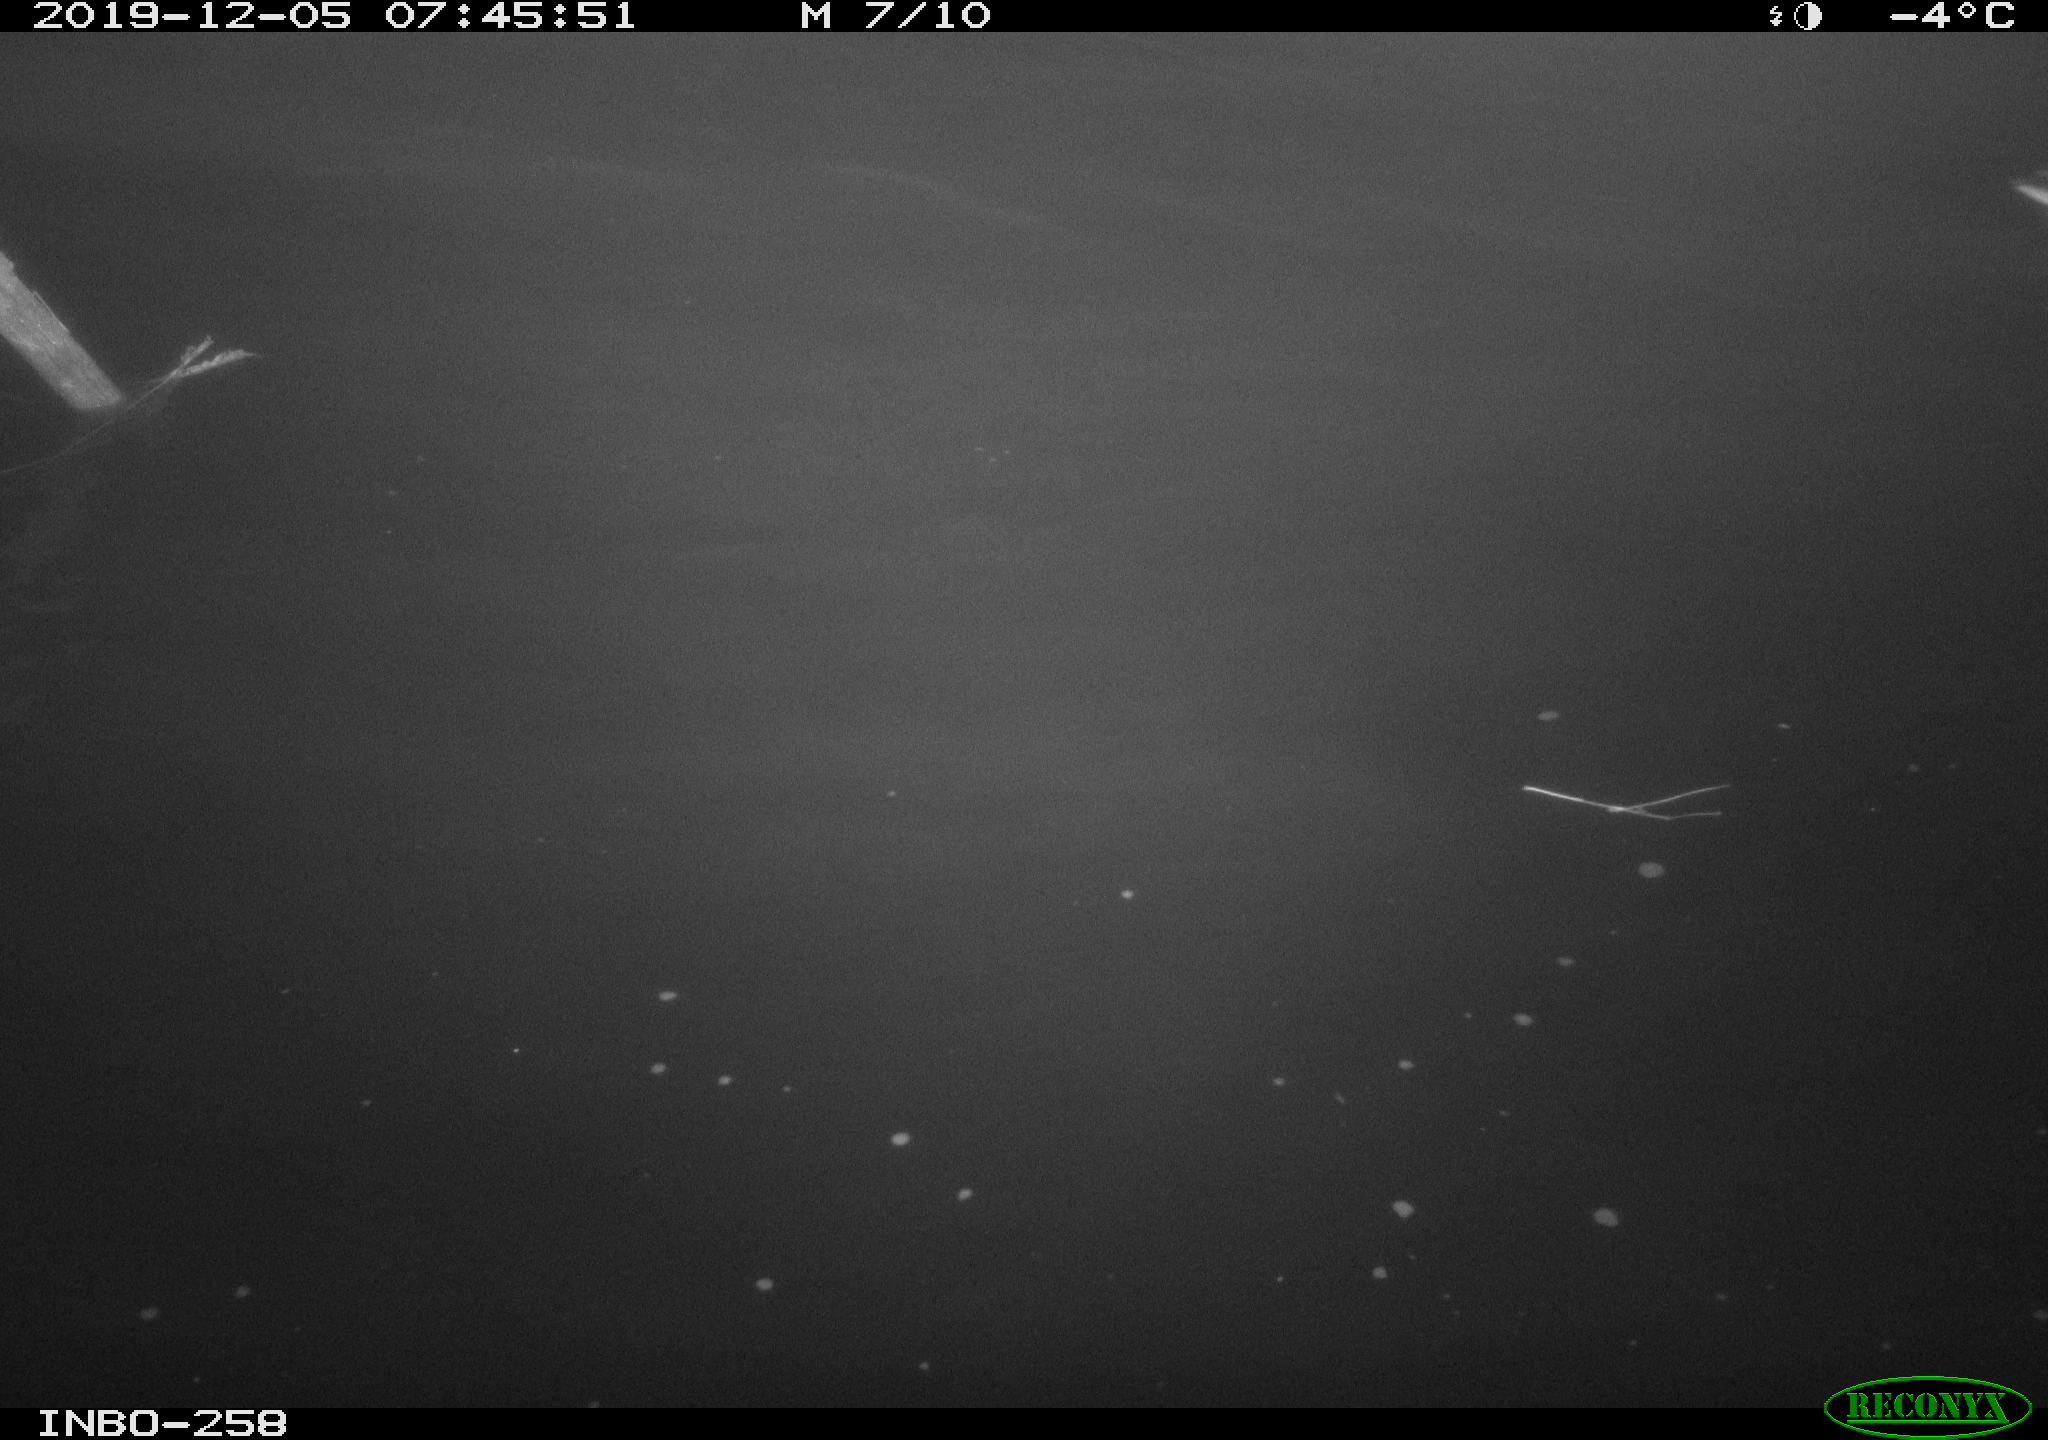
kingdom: Animalia
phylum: Chordata
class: Aves
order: Anseriformes
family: Anatidae
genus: Anas
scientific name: Anas platyrhynchos
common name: Mallard
